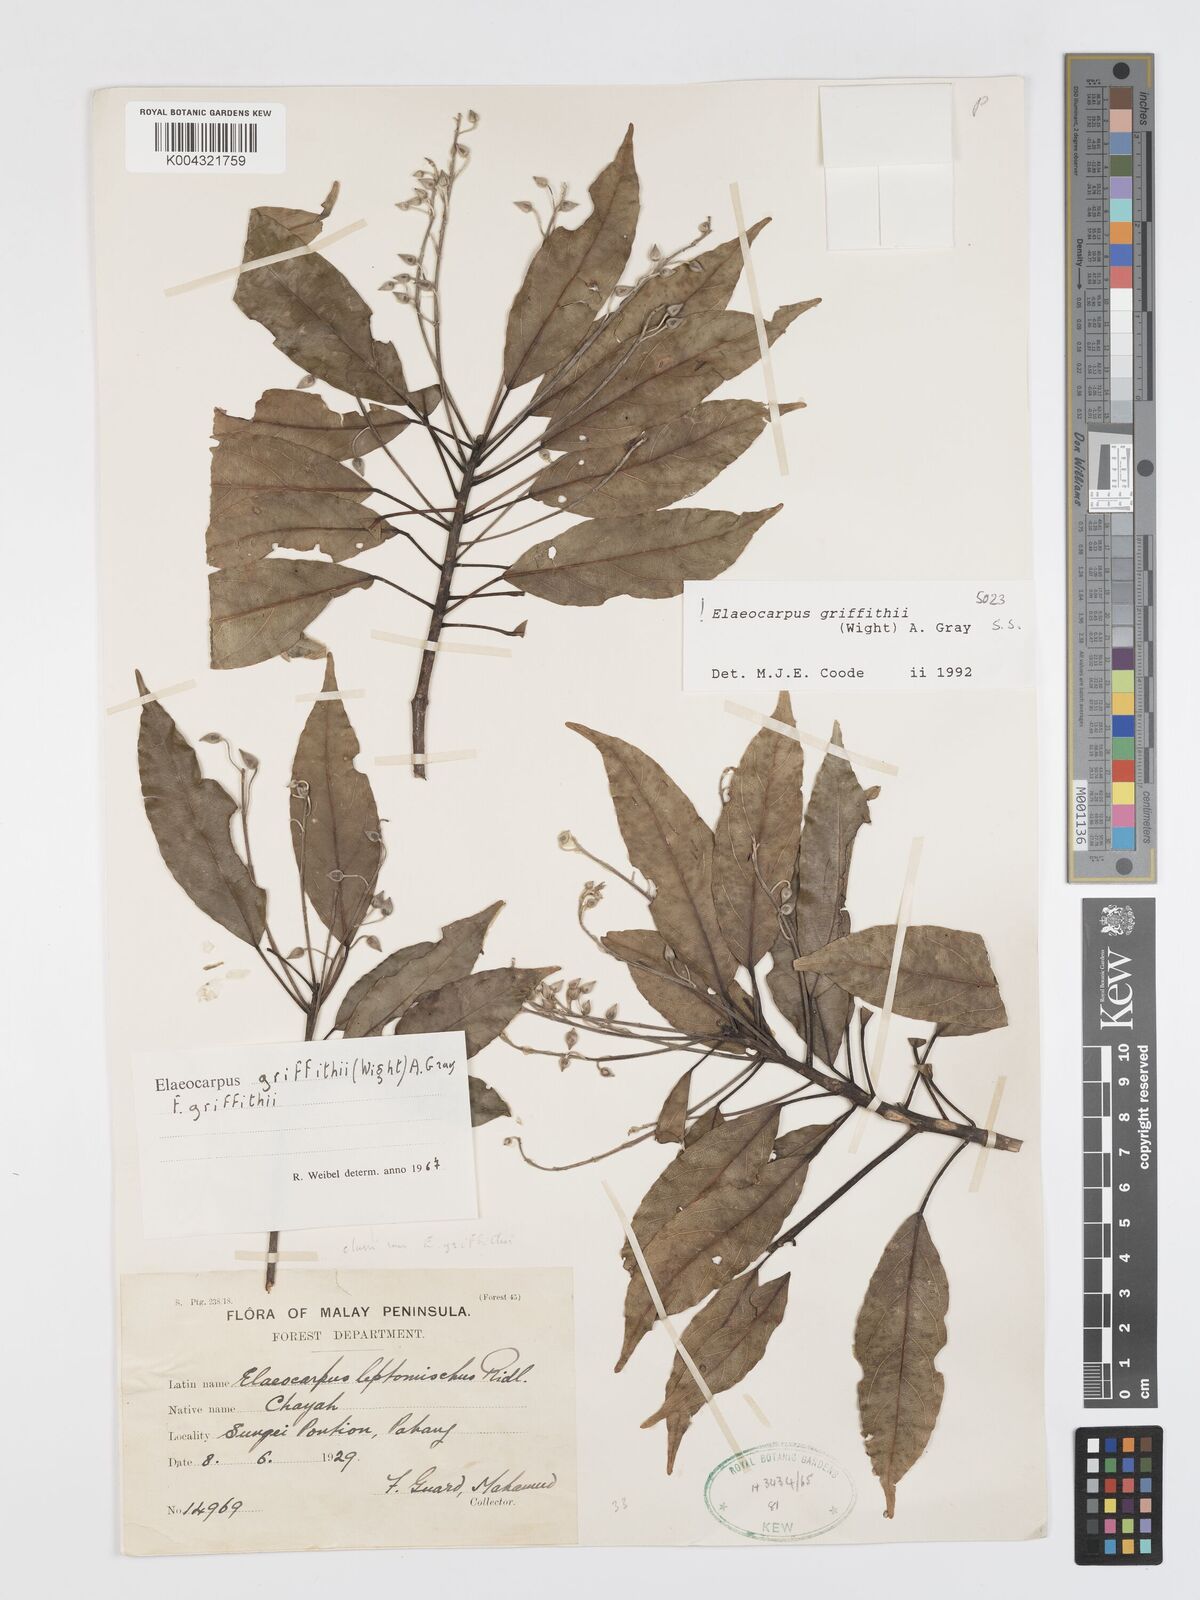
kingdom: Plantae
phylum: Tracheophyta
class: Magnoliopsida
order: Oxalidales
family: Elaeocarpaceae
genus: Elaeocarpus
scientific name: Elaeocarpus griffithii
